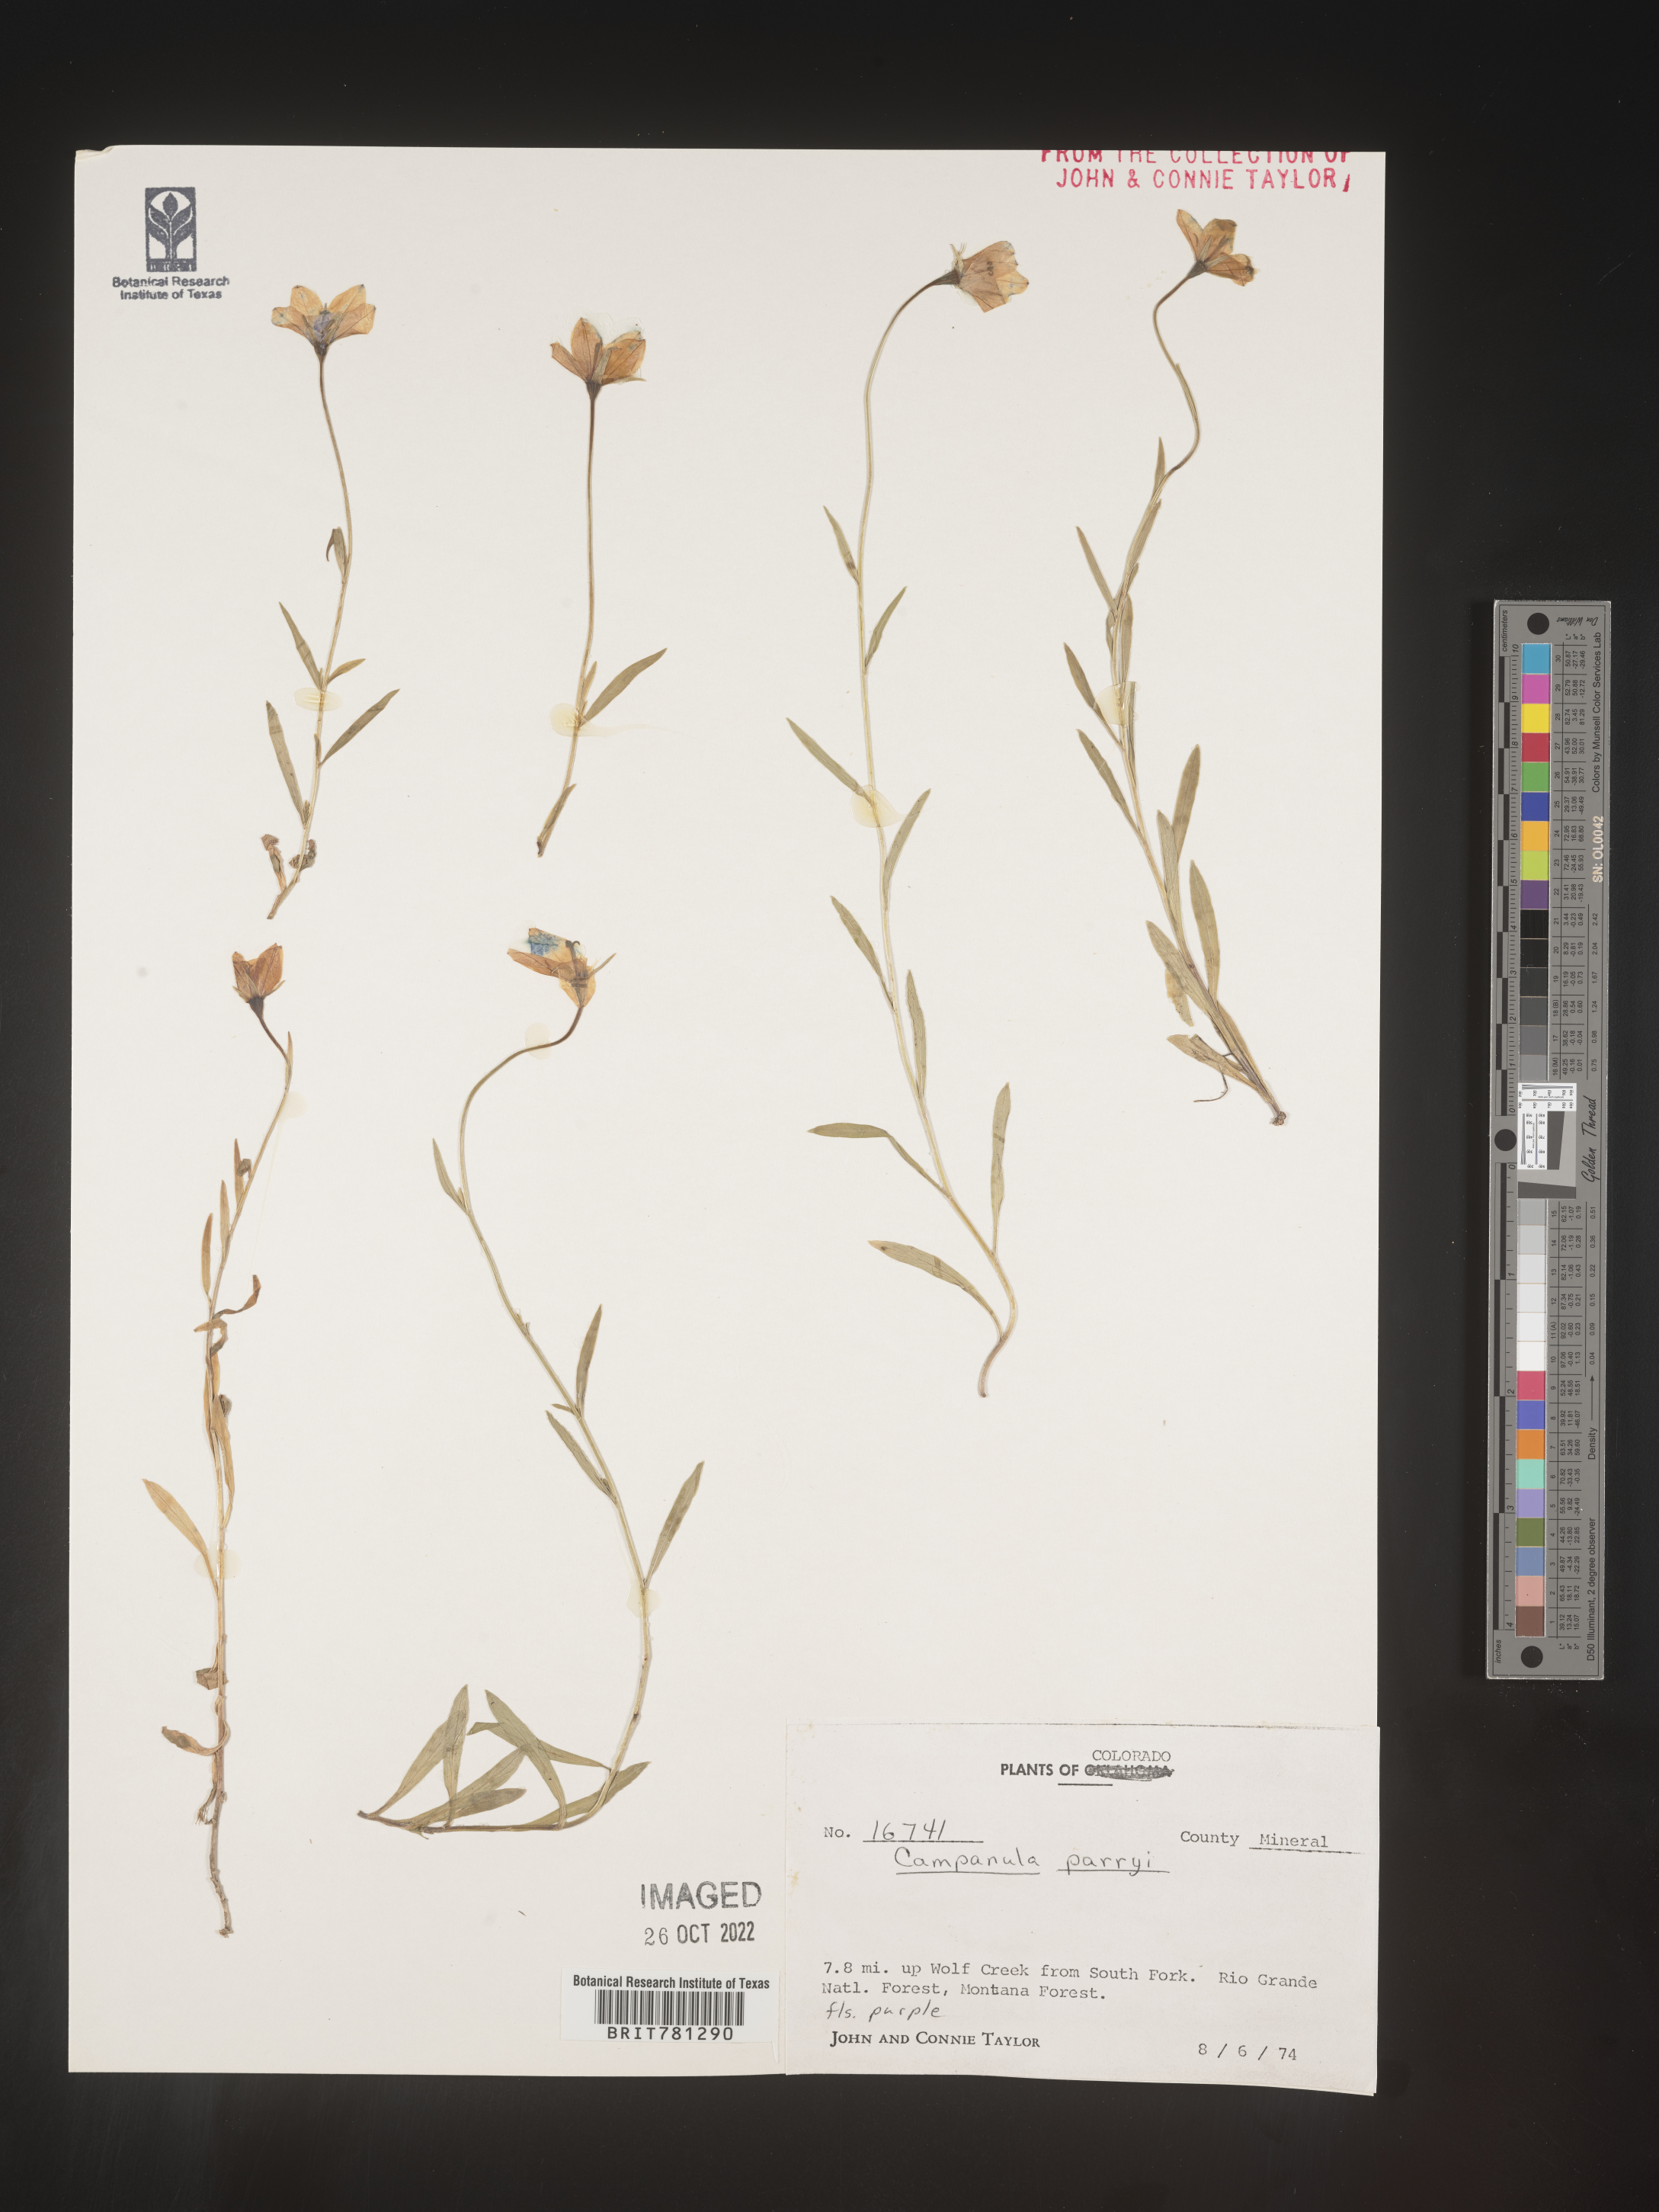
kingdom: Plantae
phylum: Tracheophyta
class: Magnoliopsida
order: Asterales
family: Campanulaceae
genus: Campanula
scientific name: Campanula parryi
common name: Rocky mountain bellflower
